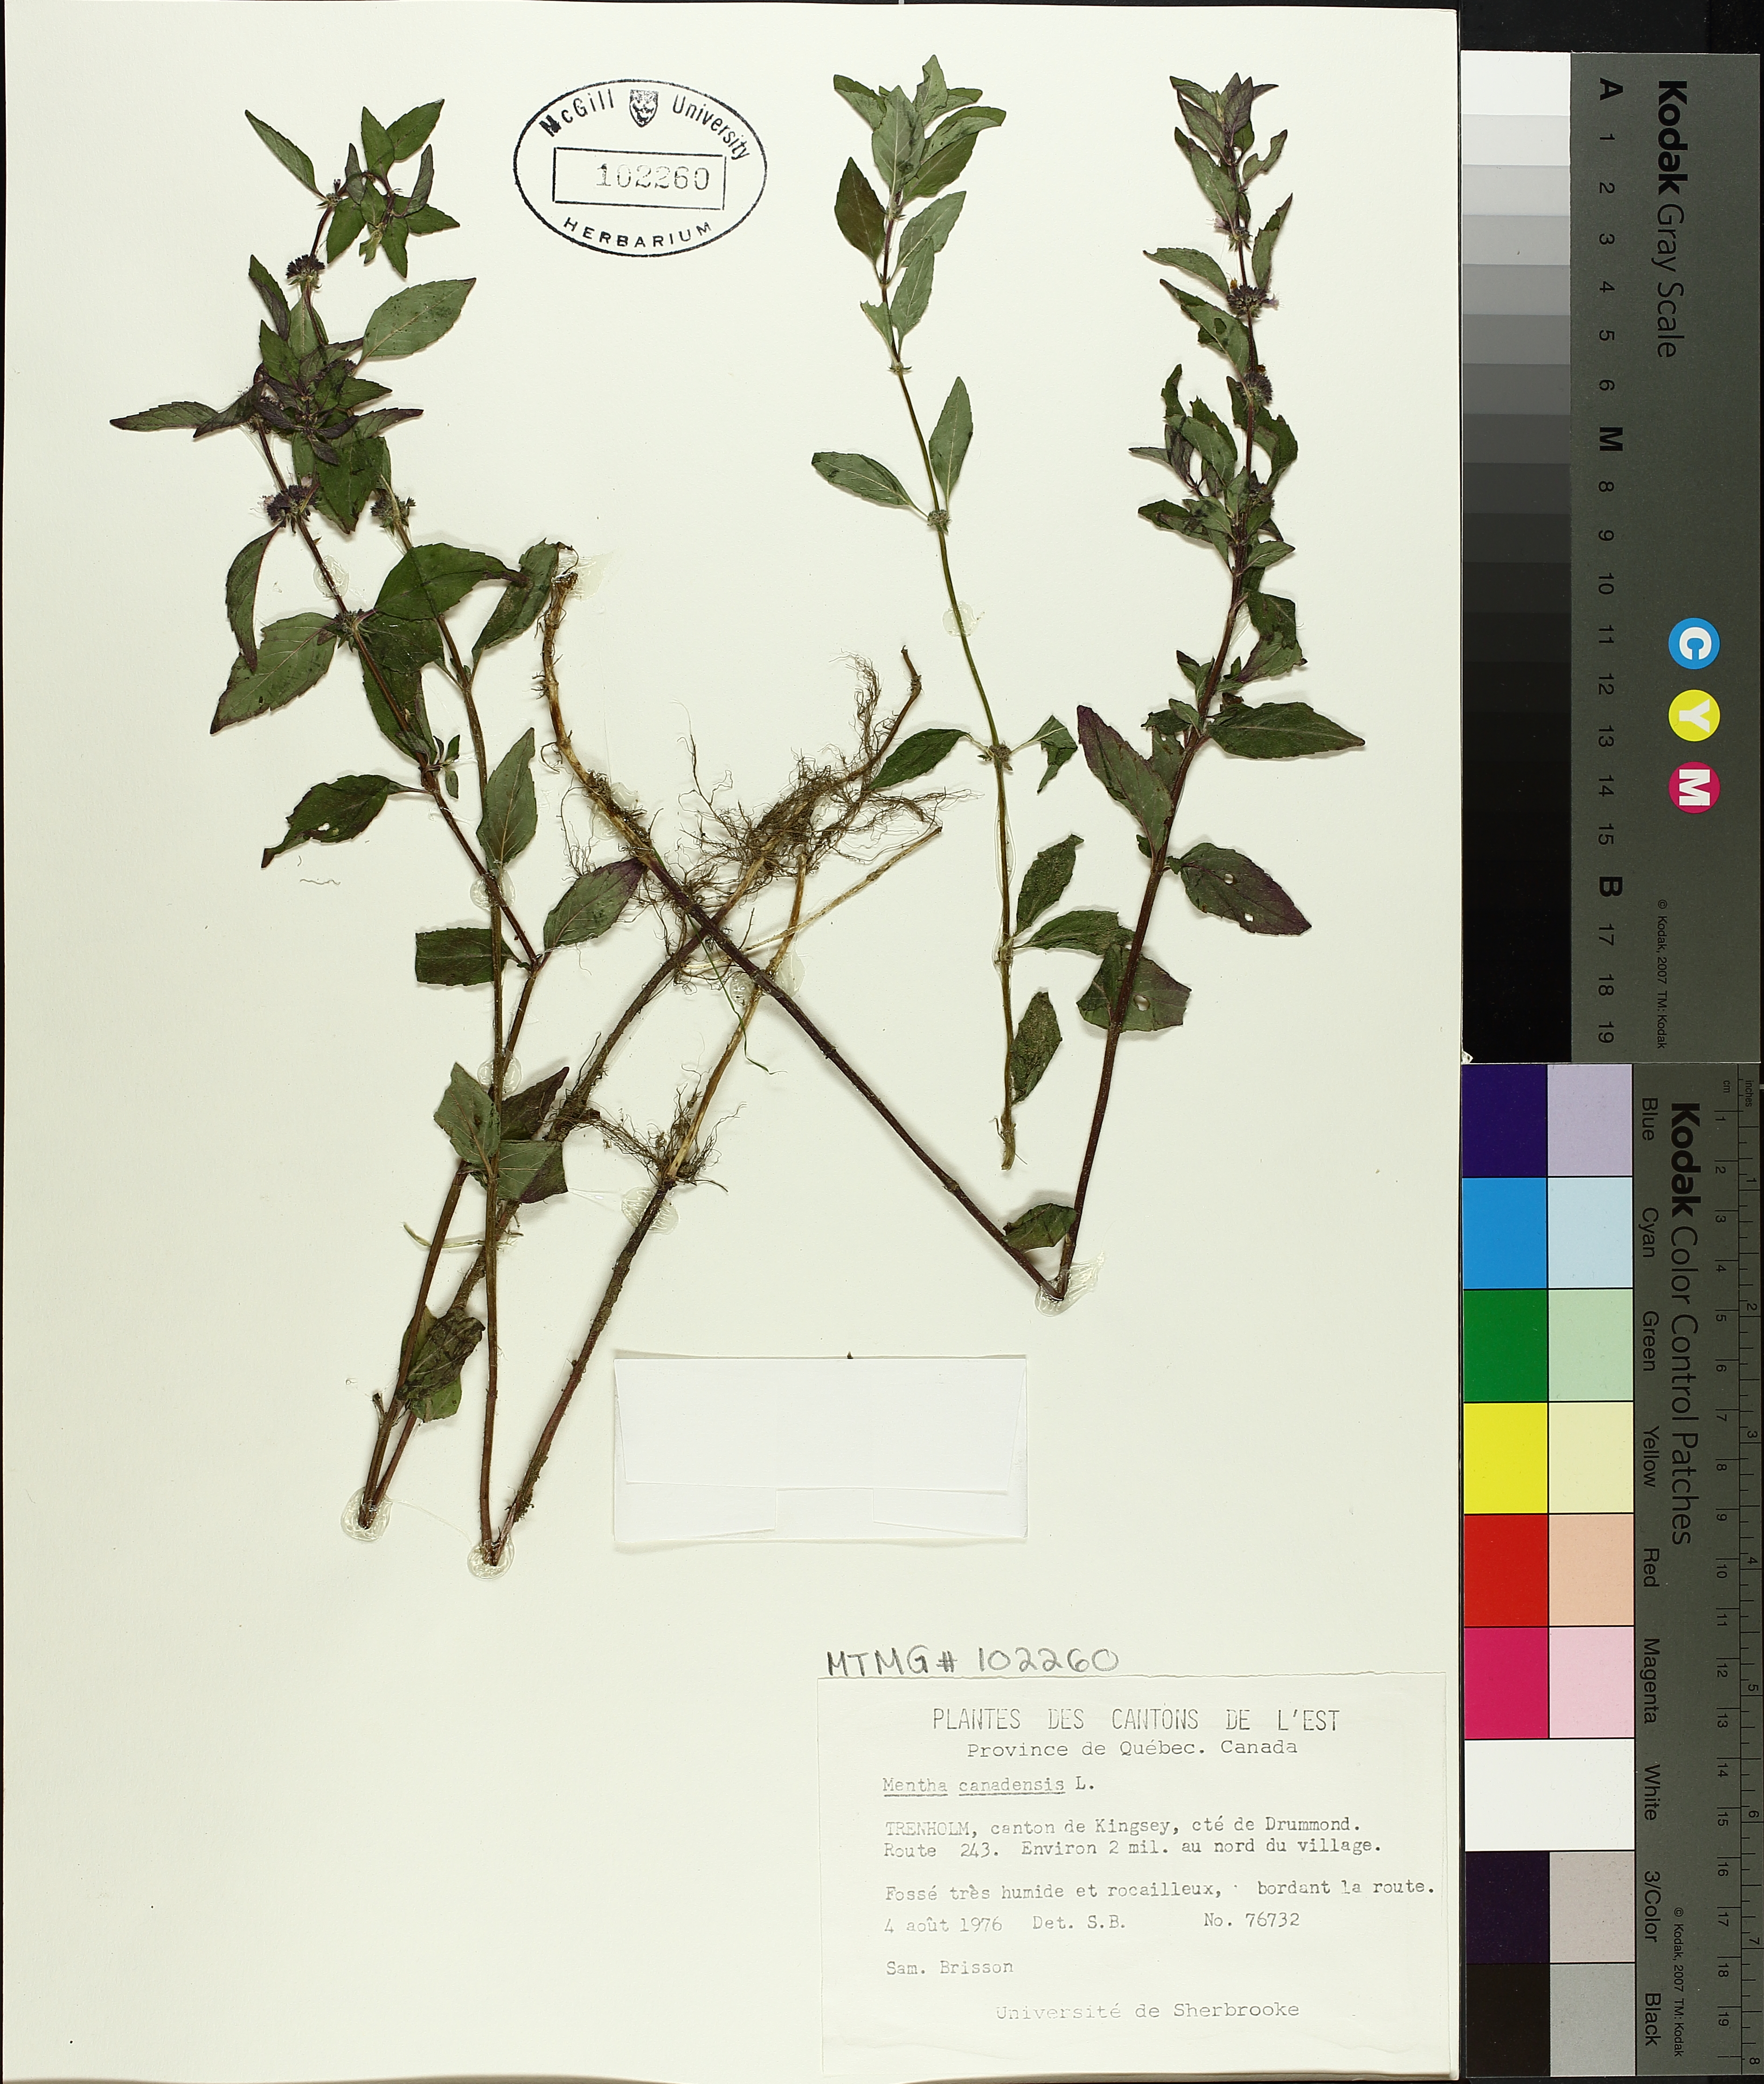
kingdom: Plantae
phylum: Tracheophyta
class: Magnoliopsida
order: Lamiales
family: Lamiaceae
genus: Mentha
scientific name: Mentha canadensis
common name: American corn mint
